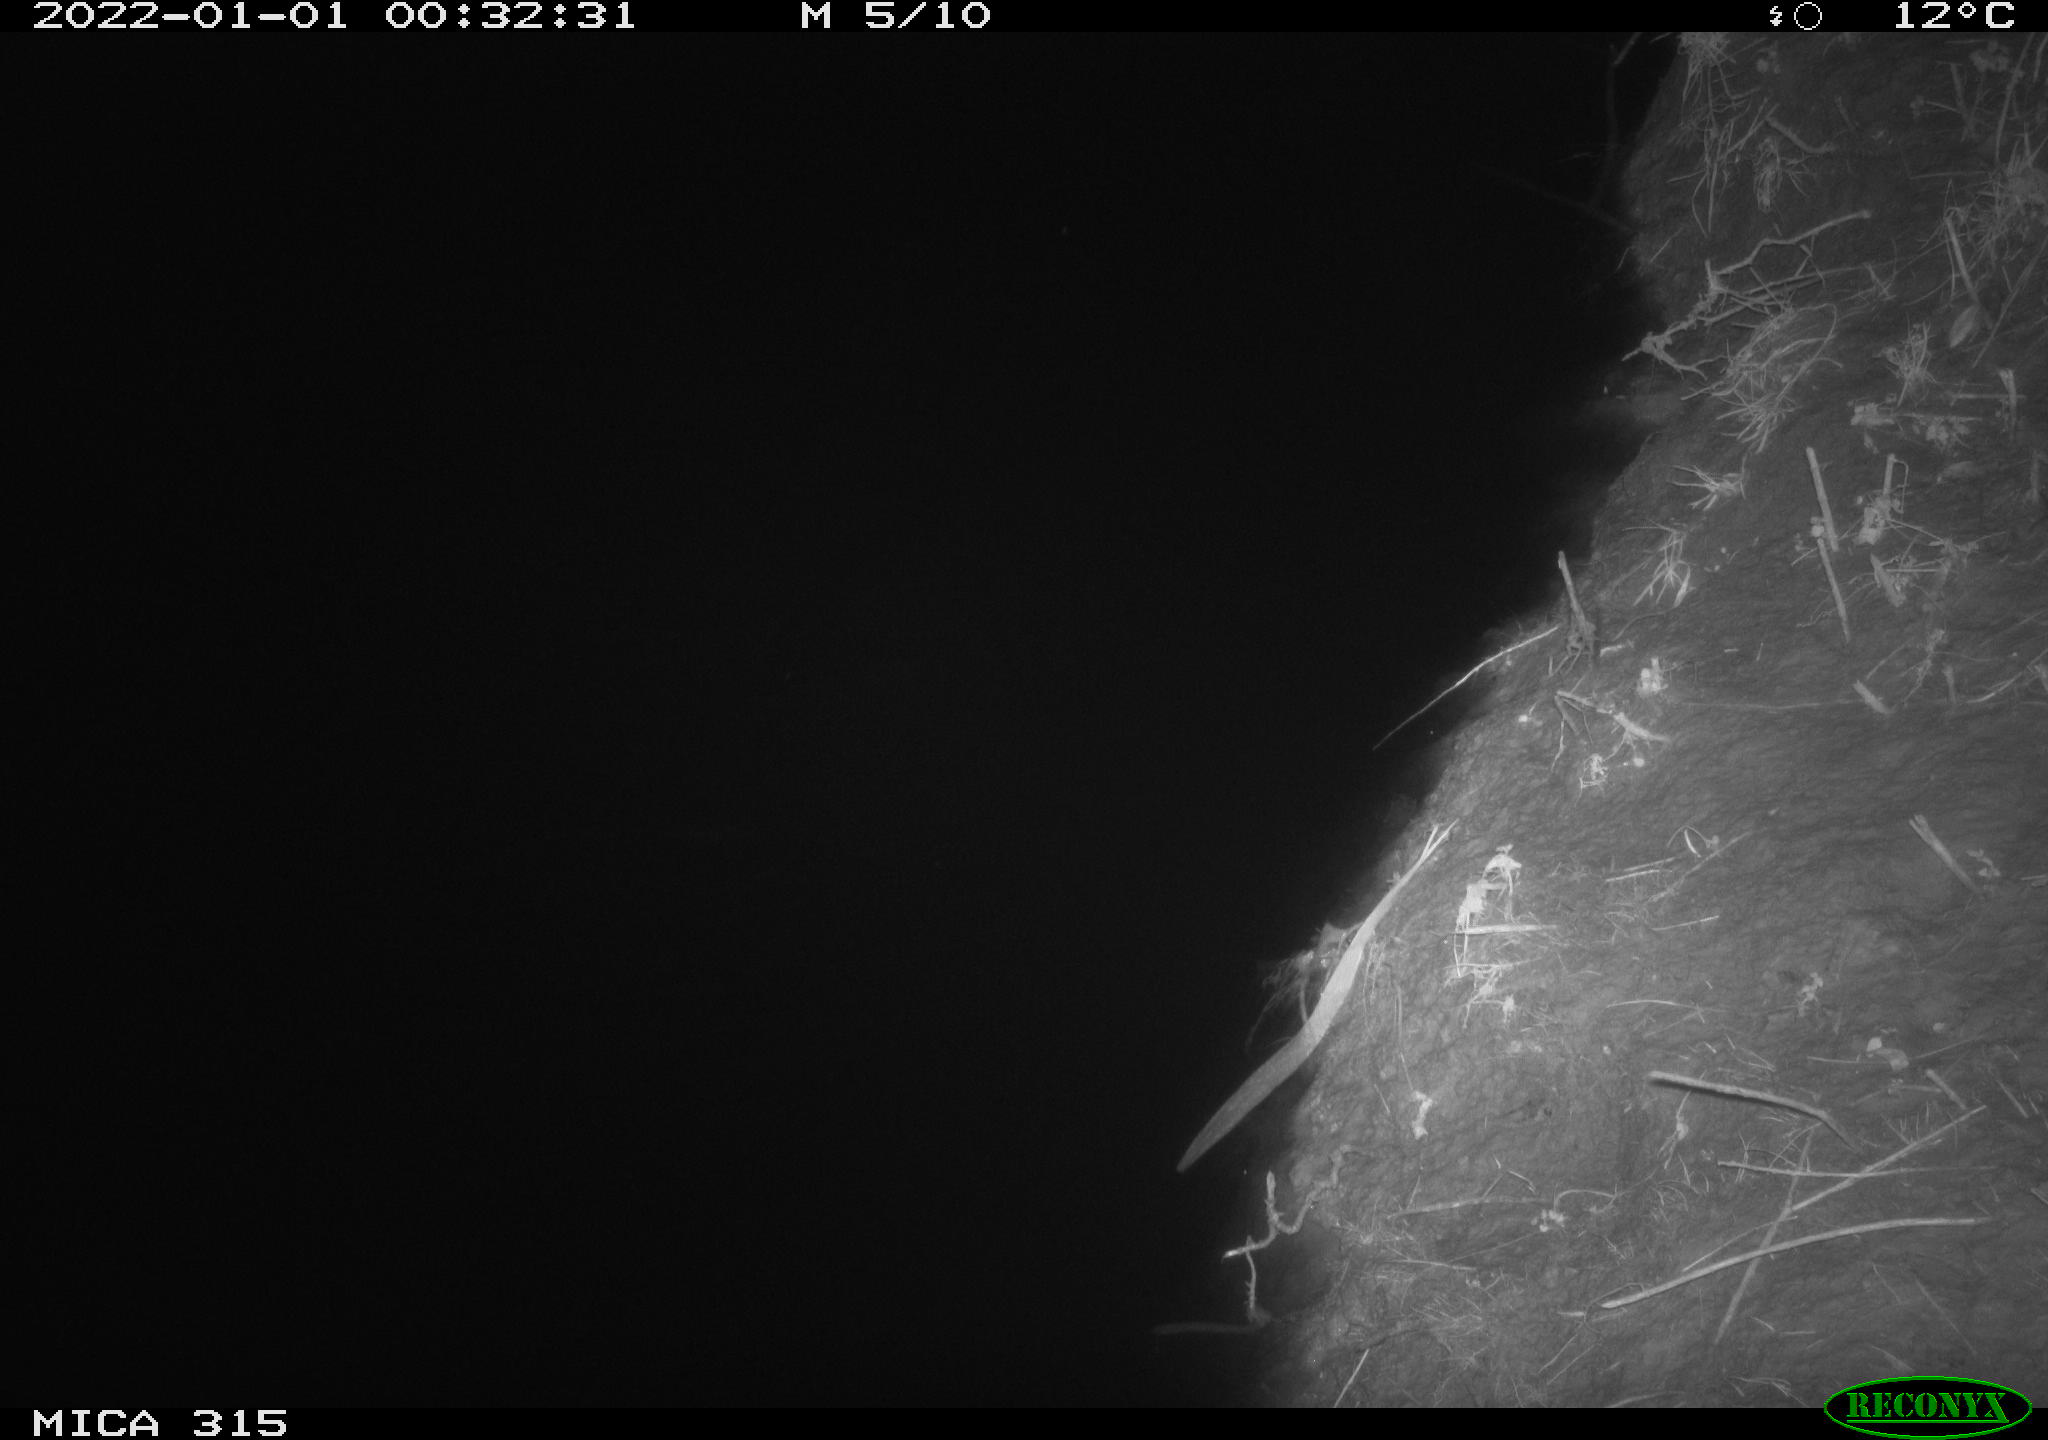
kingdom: Animalia
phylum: Chordata
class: Aves
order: Anseriformes
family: Anatidae
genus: Anas
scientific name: Anas
